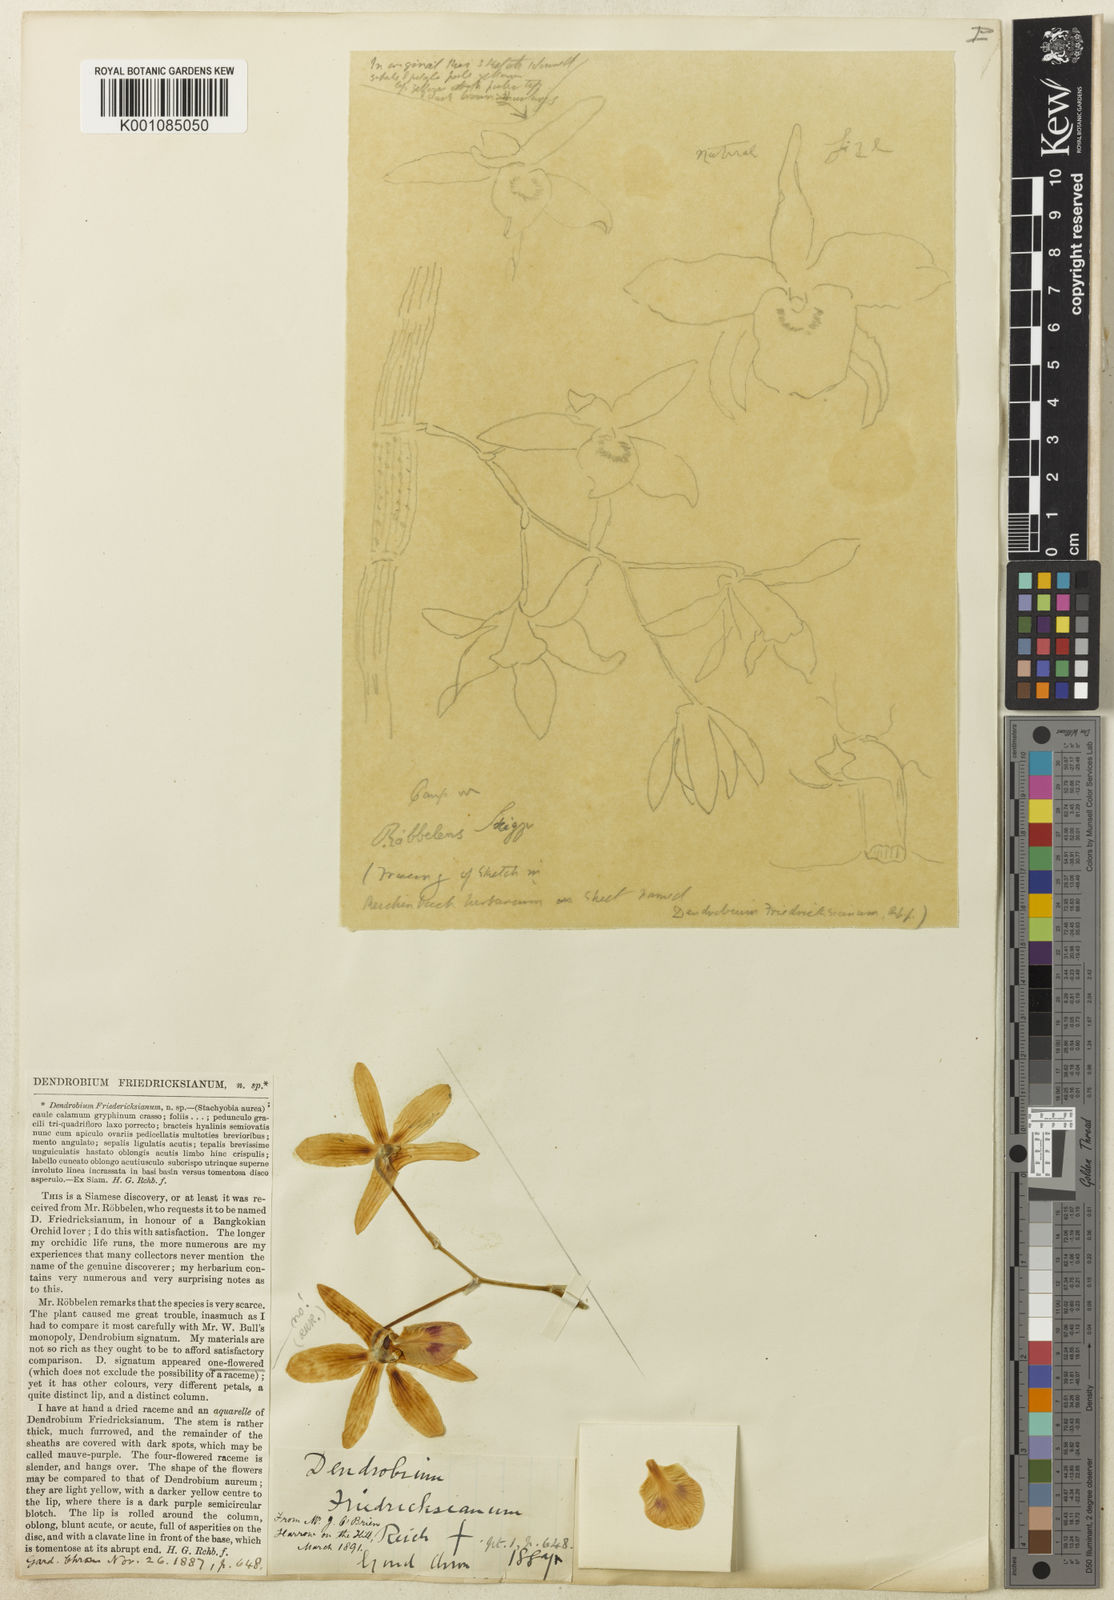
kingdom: Plantae
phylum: Tracheophyta
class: Liliopsida
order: Asparagales
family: Orchidaceae
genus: Dendrobium
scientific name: Dendrobium friedericksianum
